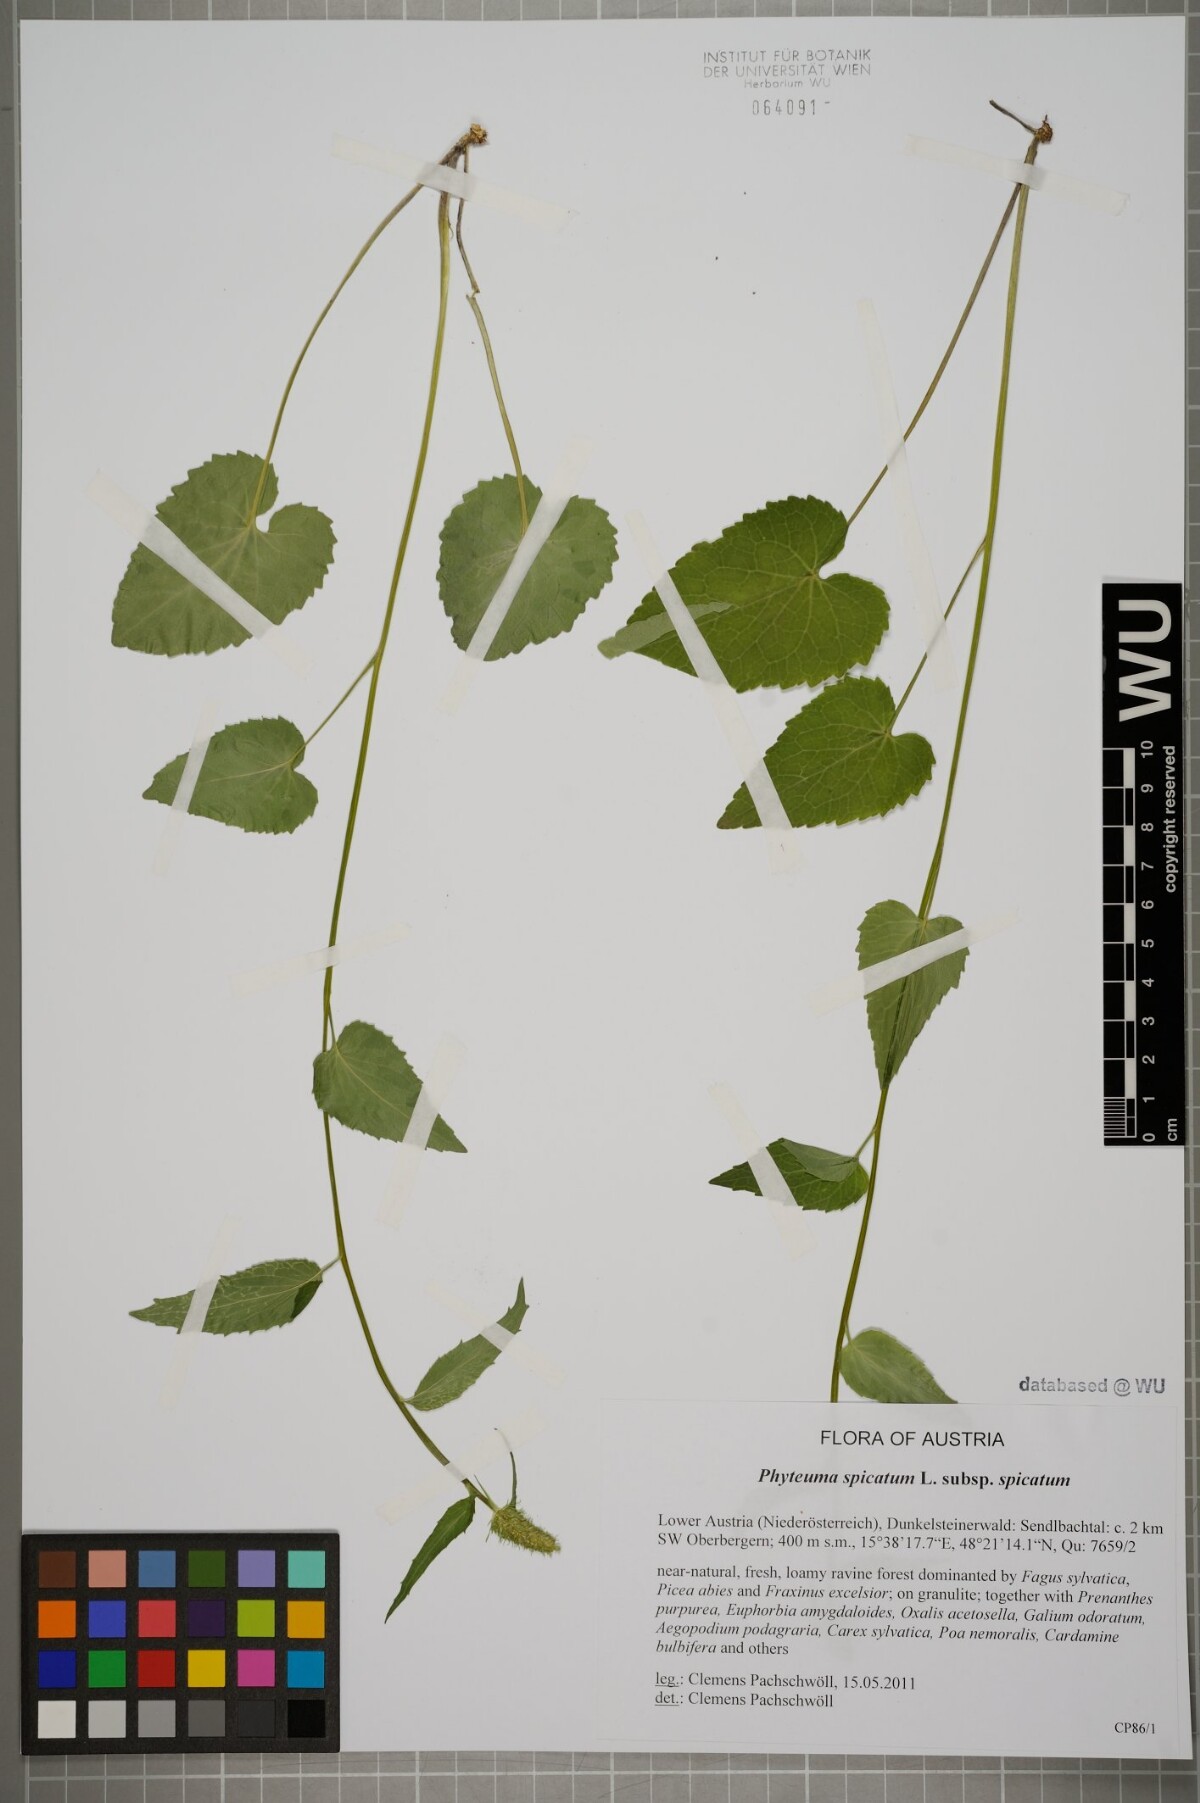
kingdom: Plantae
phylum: Tracheophyta
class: Magnoliopsida
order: Asterales
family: Campanulaceae
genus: Phyteuma
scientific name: Phyteuma spicatum
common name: Spiked rampion
